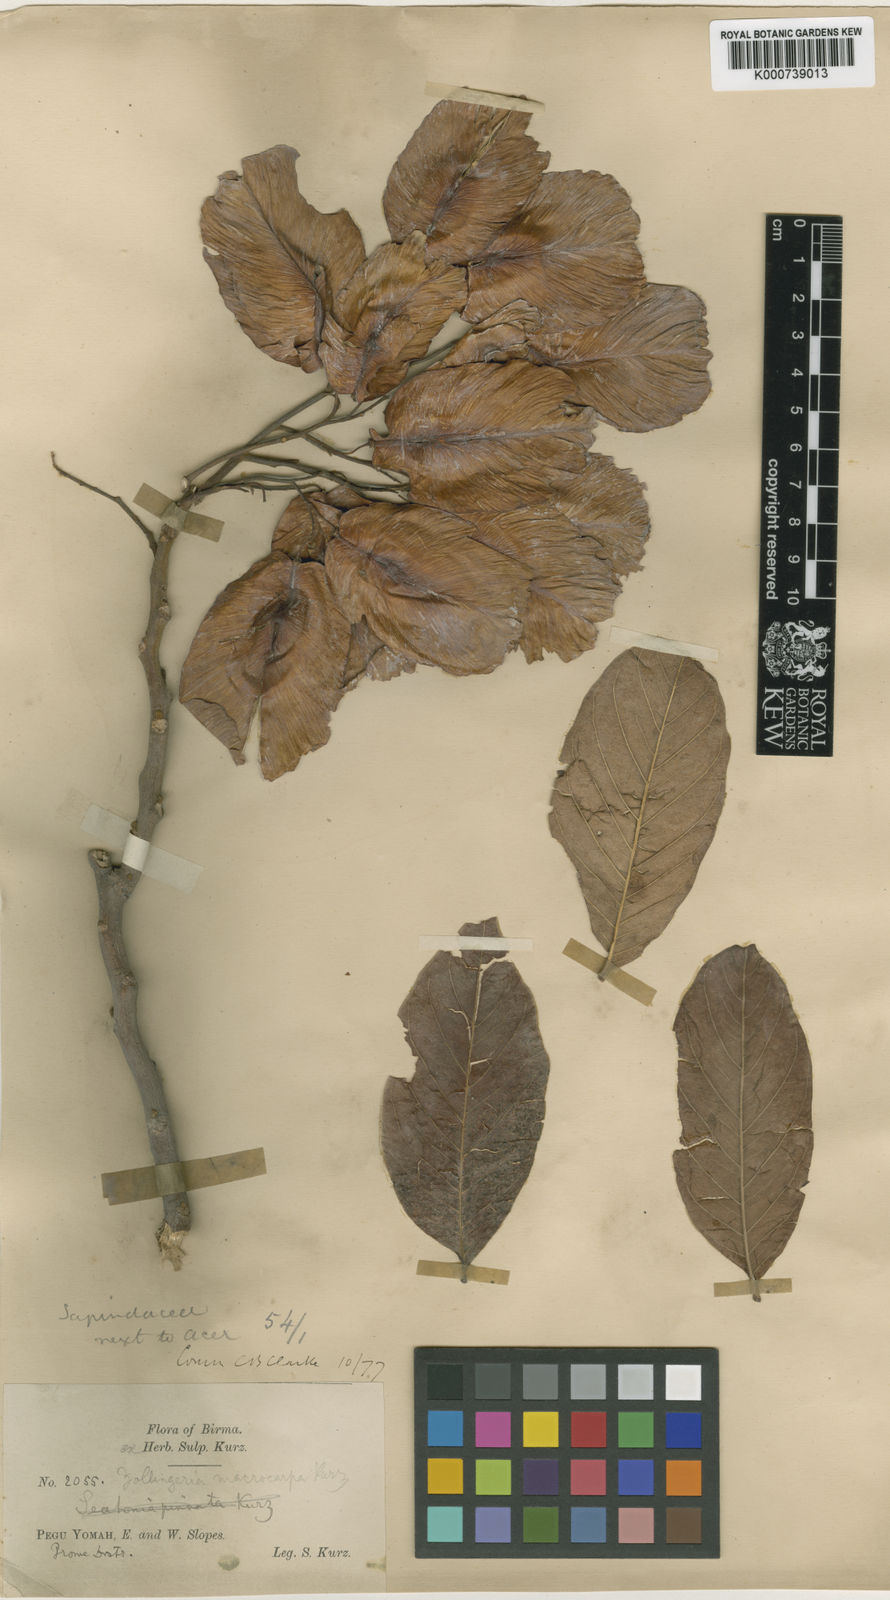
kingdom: Plantae
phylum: Tracheophyta
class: Magnoliopsida
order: Sapindales
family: Sapindaceae
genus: Zollingeria
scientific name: Zollingeria macrocarpa
